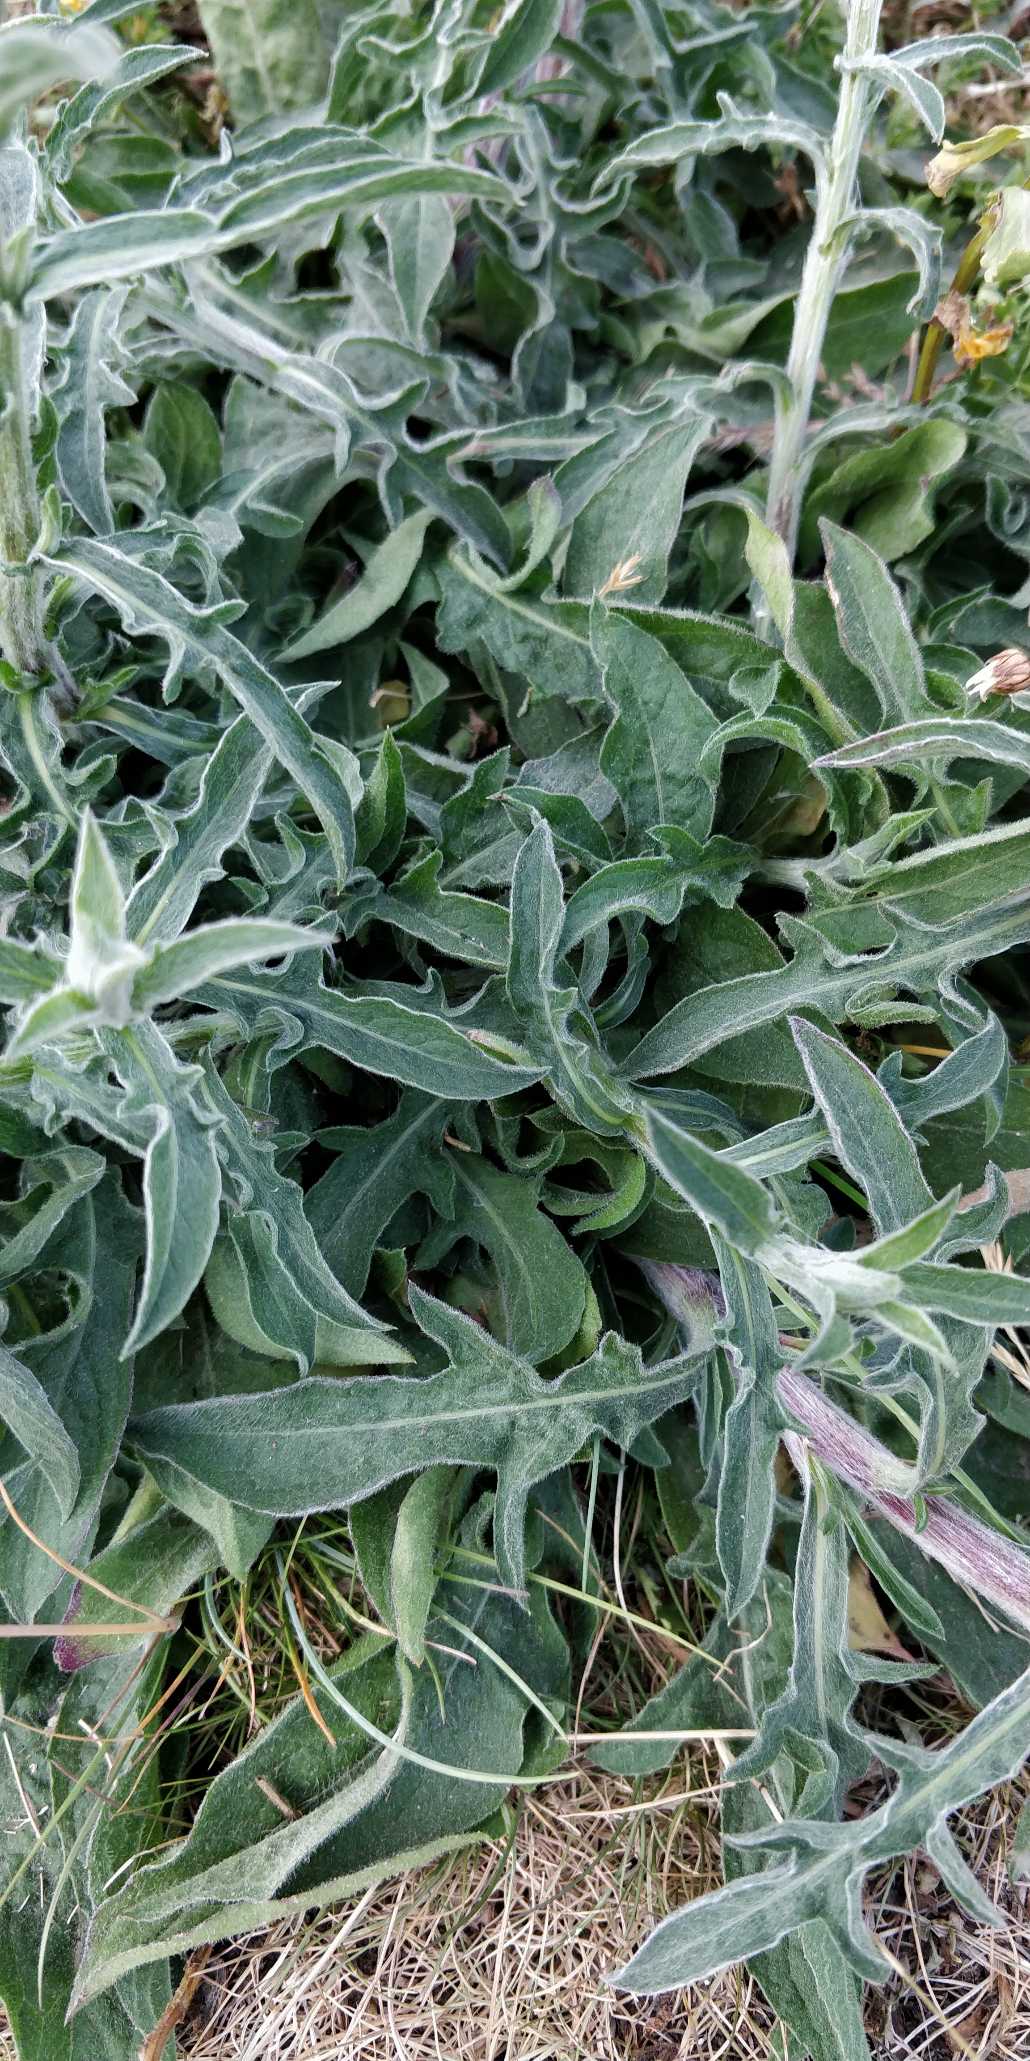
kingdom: Plantae
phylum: Tracheophyta
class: Magnoliopsida
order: Asterales
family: Asteraceae
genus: Centaurea
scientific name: Centaurea jacea
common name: Almindelig knopurt
